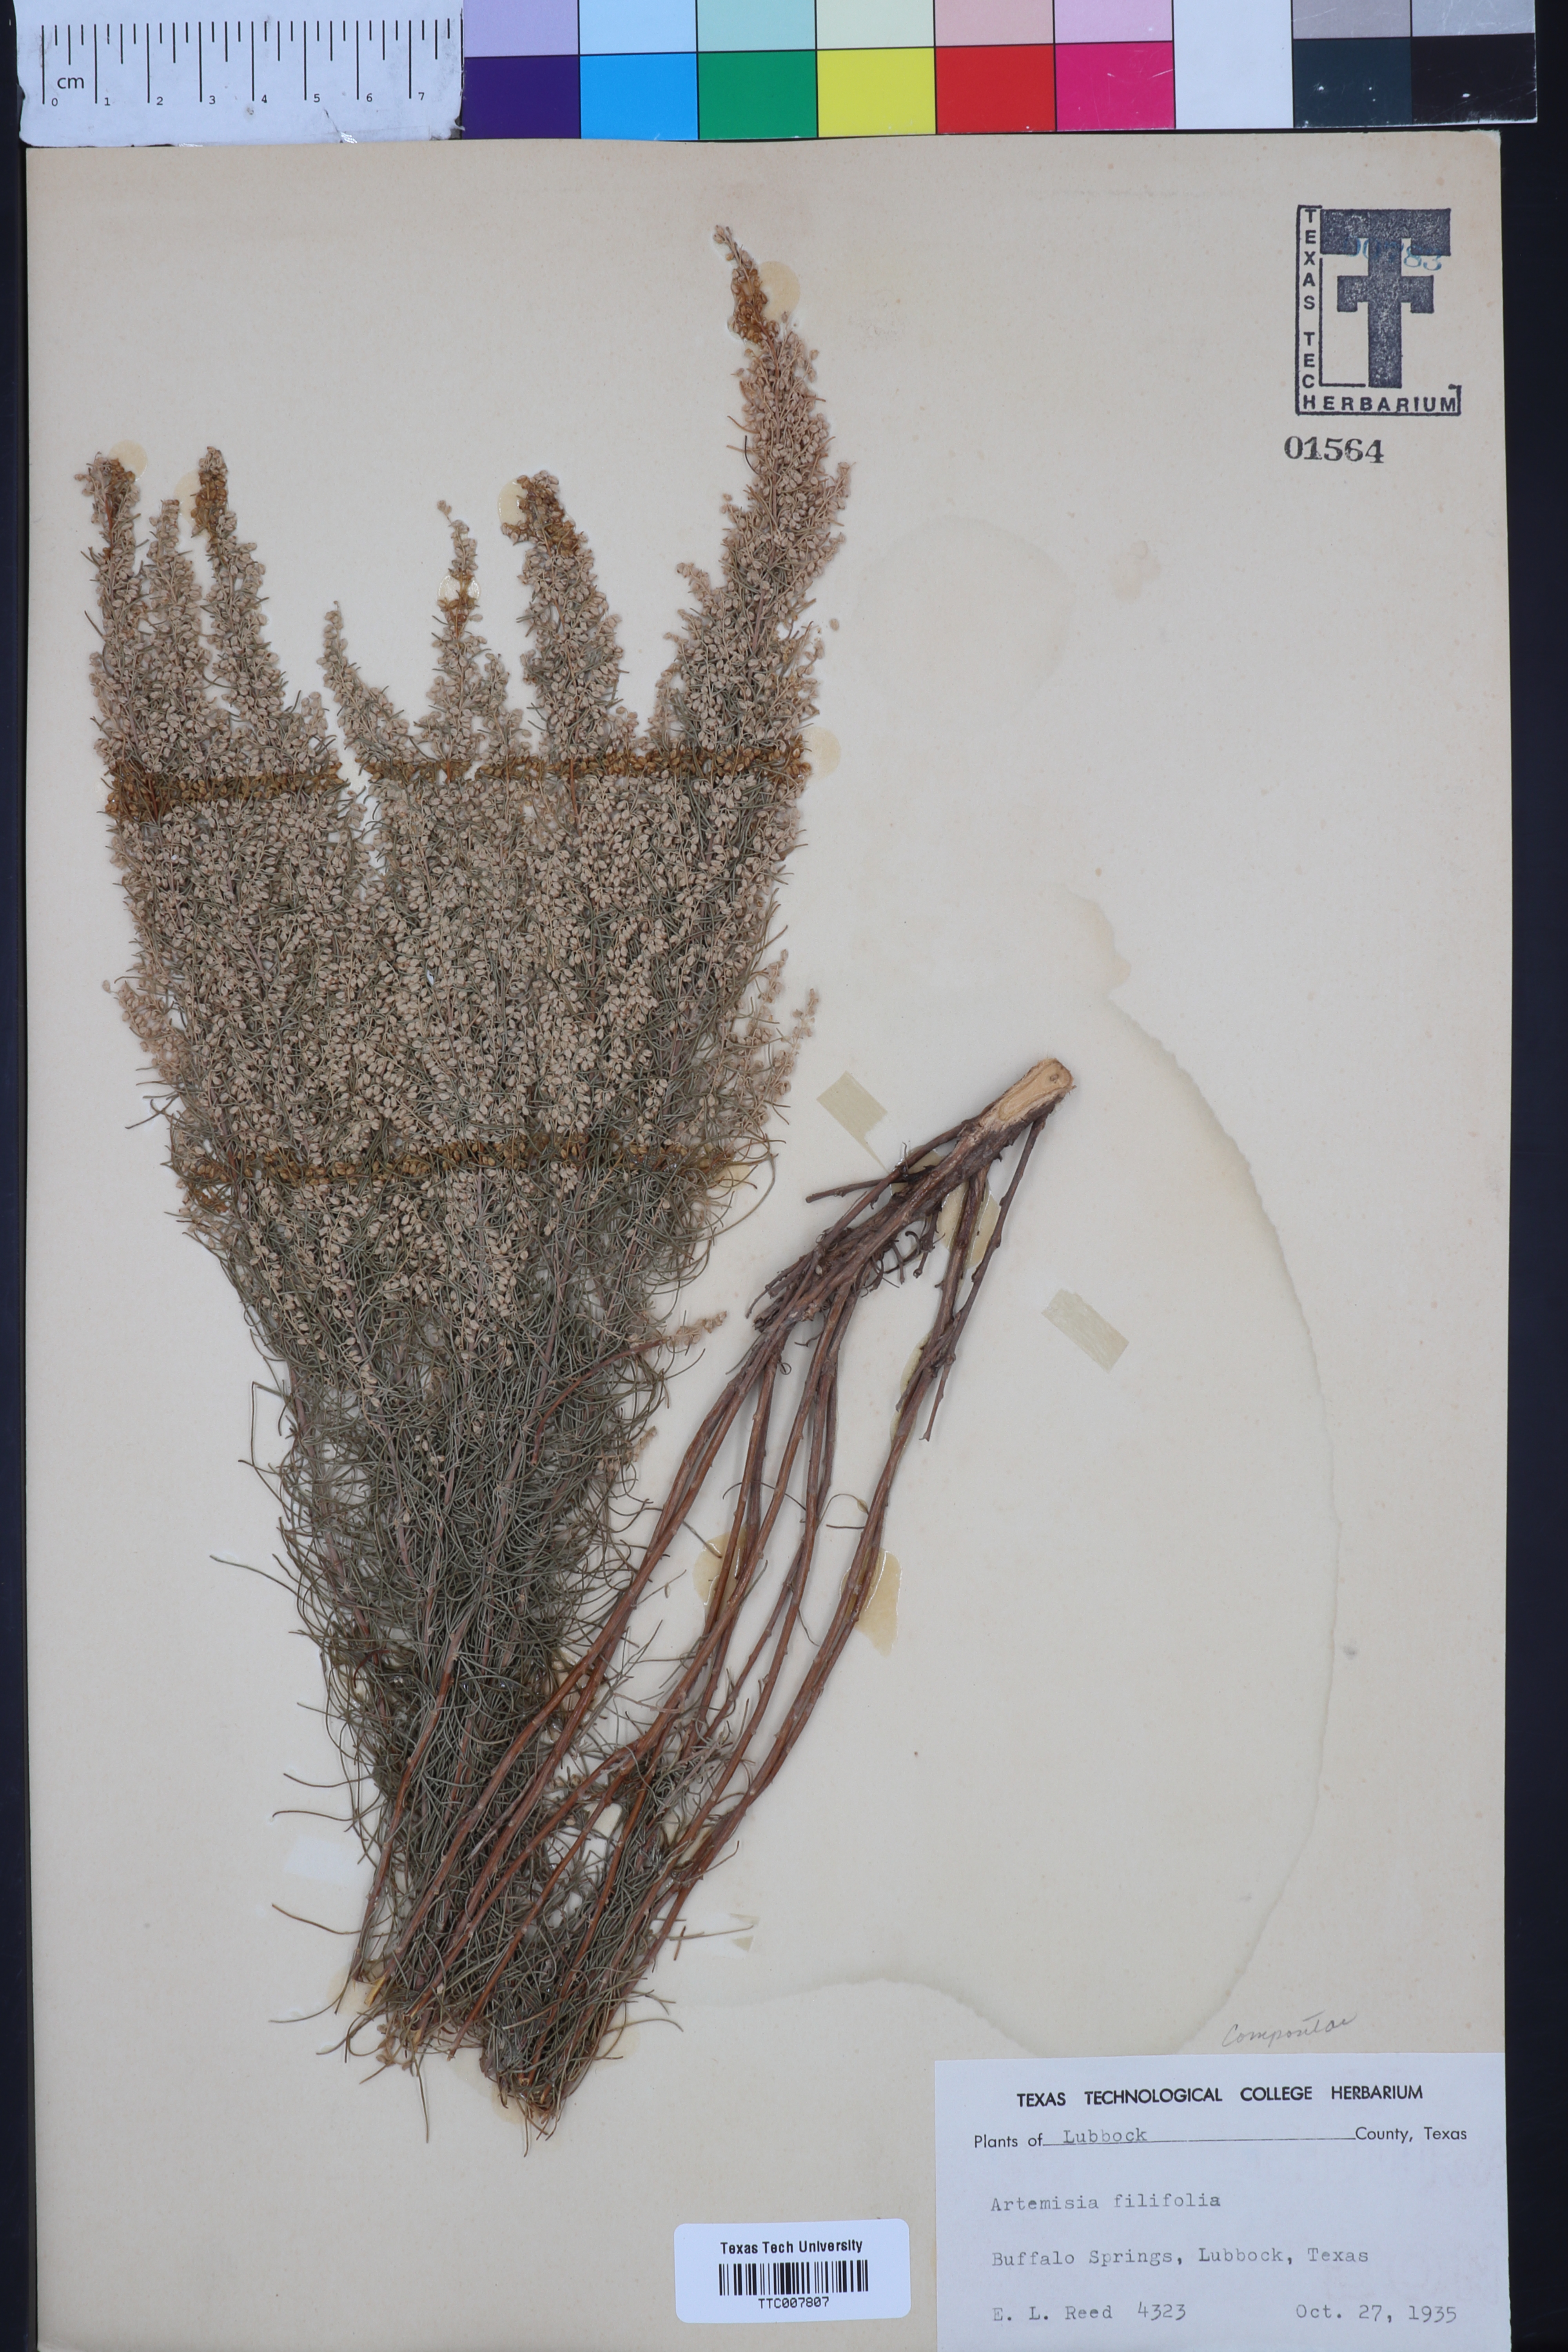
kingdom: Plantae
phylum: Tracheophyta
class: Magnoliopsida
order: Asterales
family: Asteraceae
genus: Artemisia
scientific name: Artemisia filifolia
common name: Sand-sage
